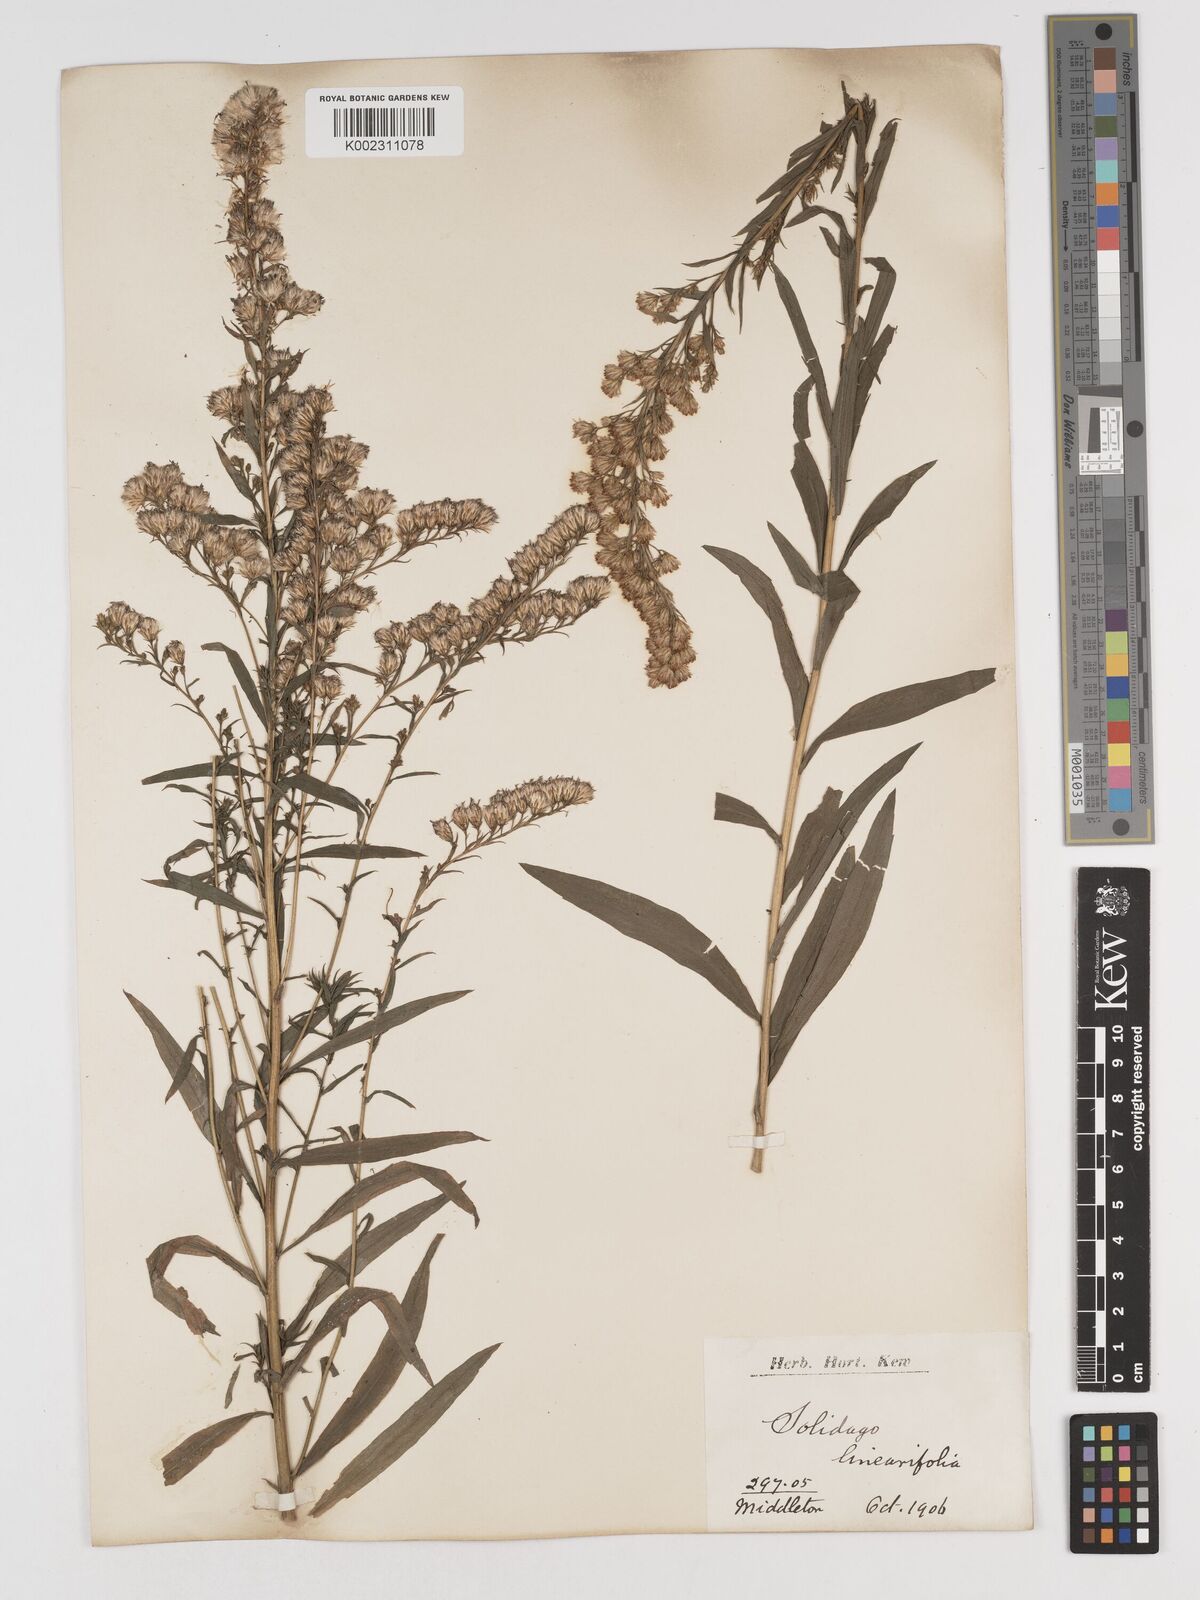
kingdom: Plantae
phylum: Tracheophyta
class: Magnoliopsida
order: Asterales
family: Asteraceae
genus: Solidago
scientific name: Solidago
